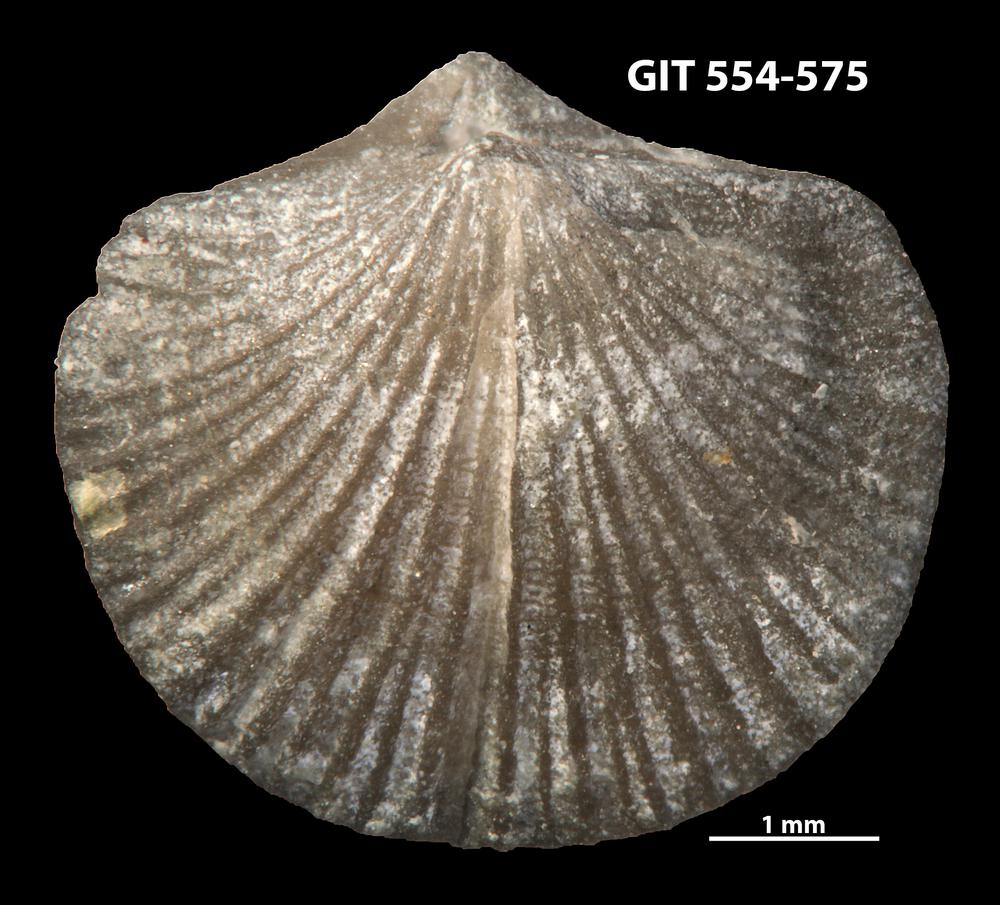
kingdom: Animalia
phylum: Brachiopoda
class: Rhynchonellata
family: Dalmanellidae
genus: Isorthis
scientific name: Isorthis parvulus
